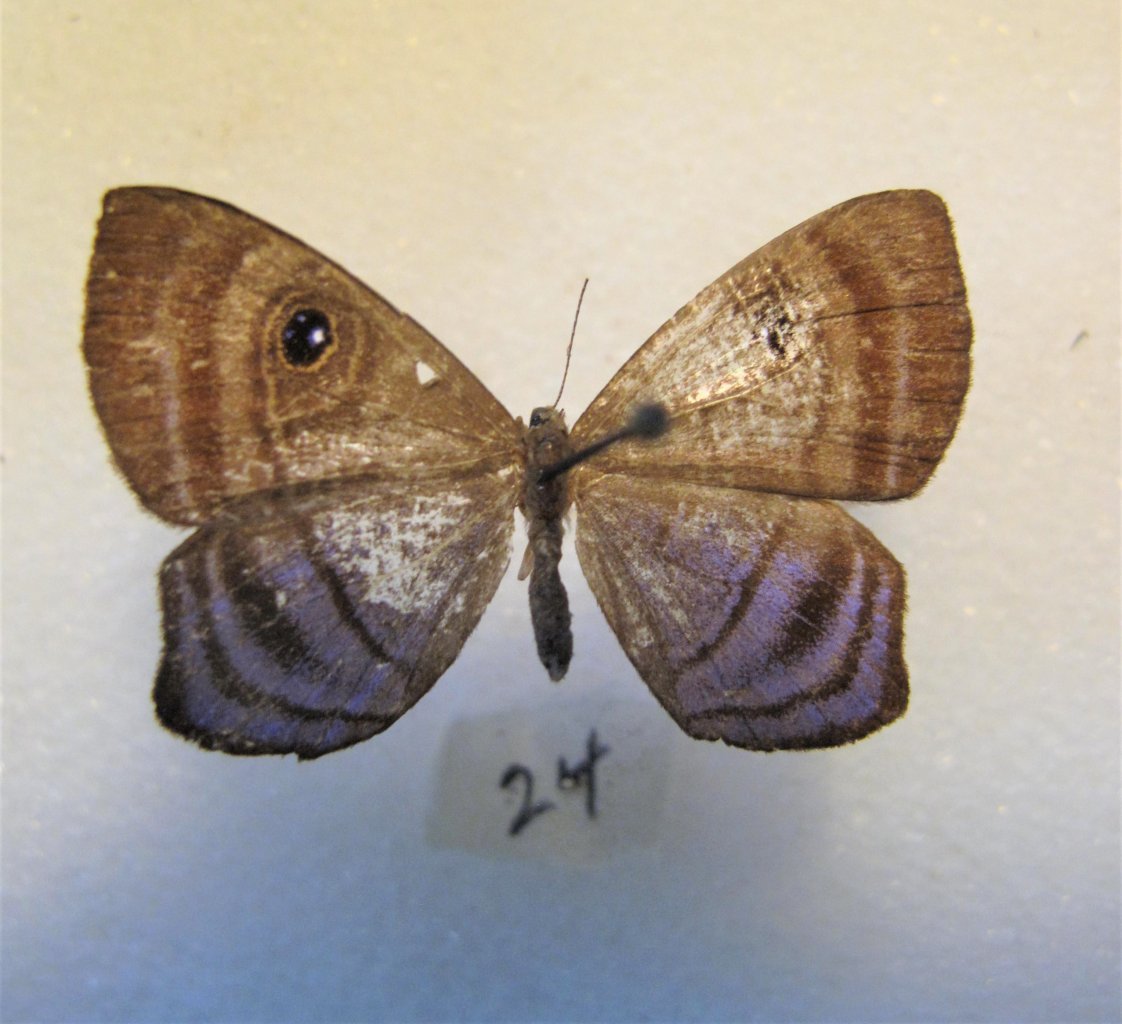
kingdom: Animalia
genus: Mesosemia
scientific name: Mesosemia
